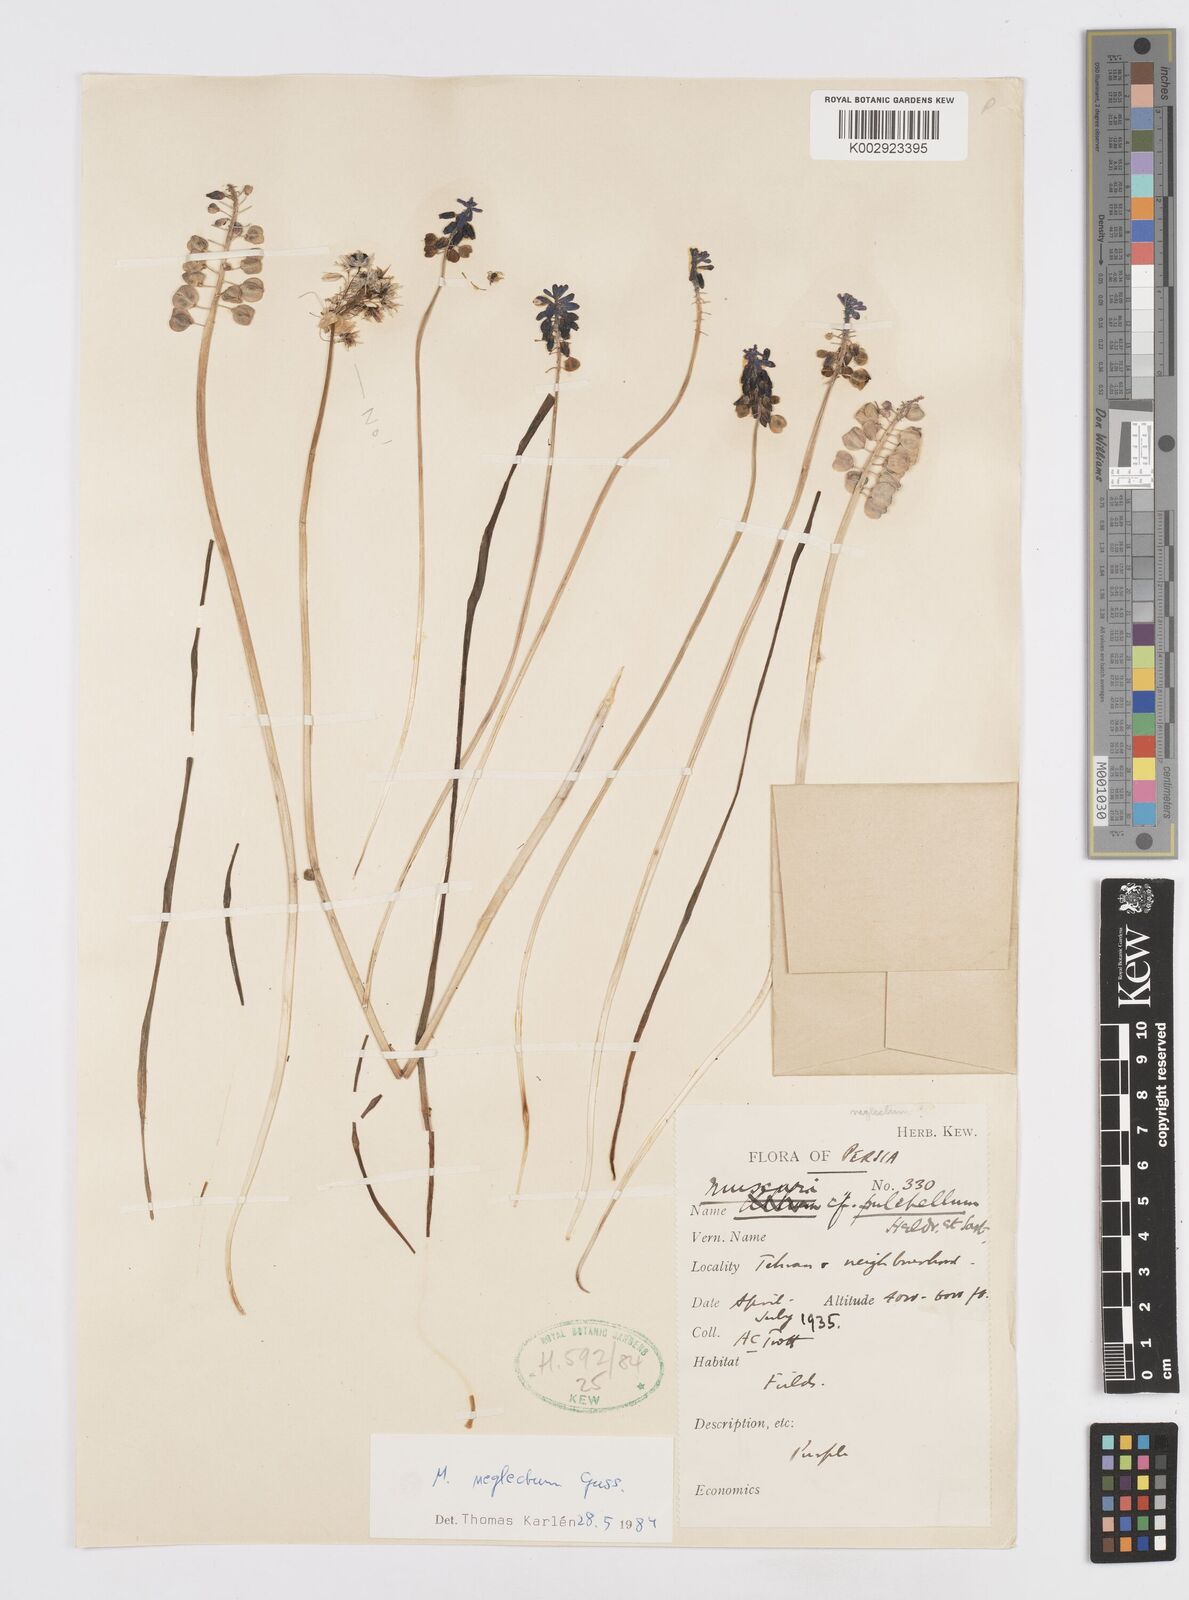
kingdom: Plantae
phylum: Tracheophyta
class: Liliopsida
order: Asparagales
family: Asparagaceae
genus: Muscari
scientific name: Muscari neglectum
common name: Grape-hyacinth
